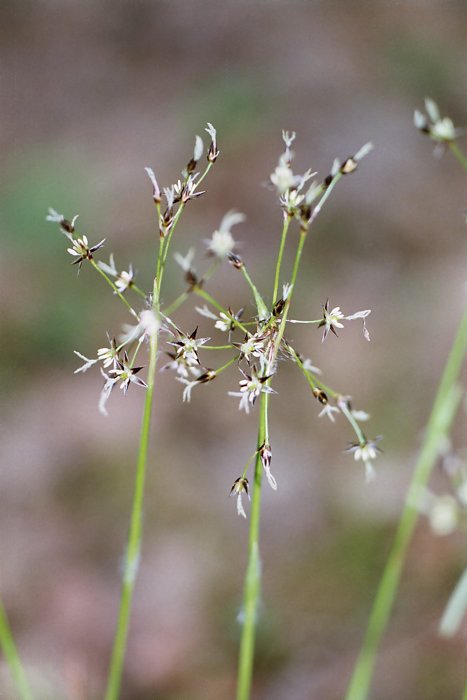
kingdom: Plantae
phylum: Tracheophyta
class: Liliopsida
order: Poales
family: Juncaceae
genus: Luzula
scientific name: Luzula pilosa
